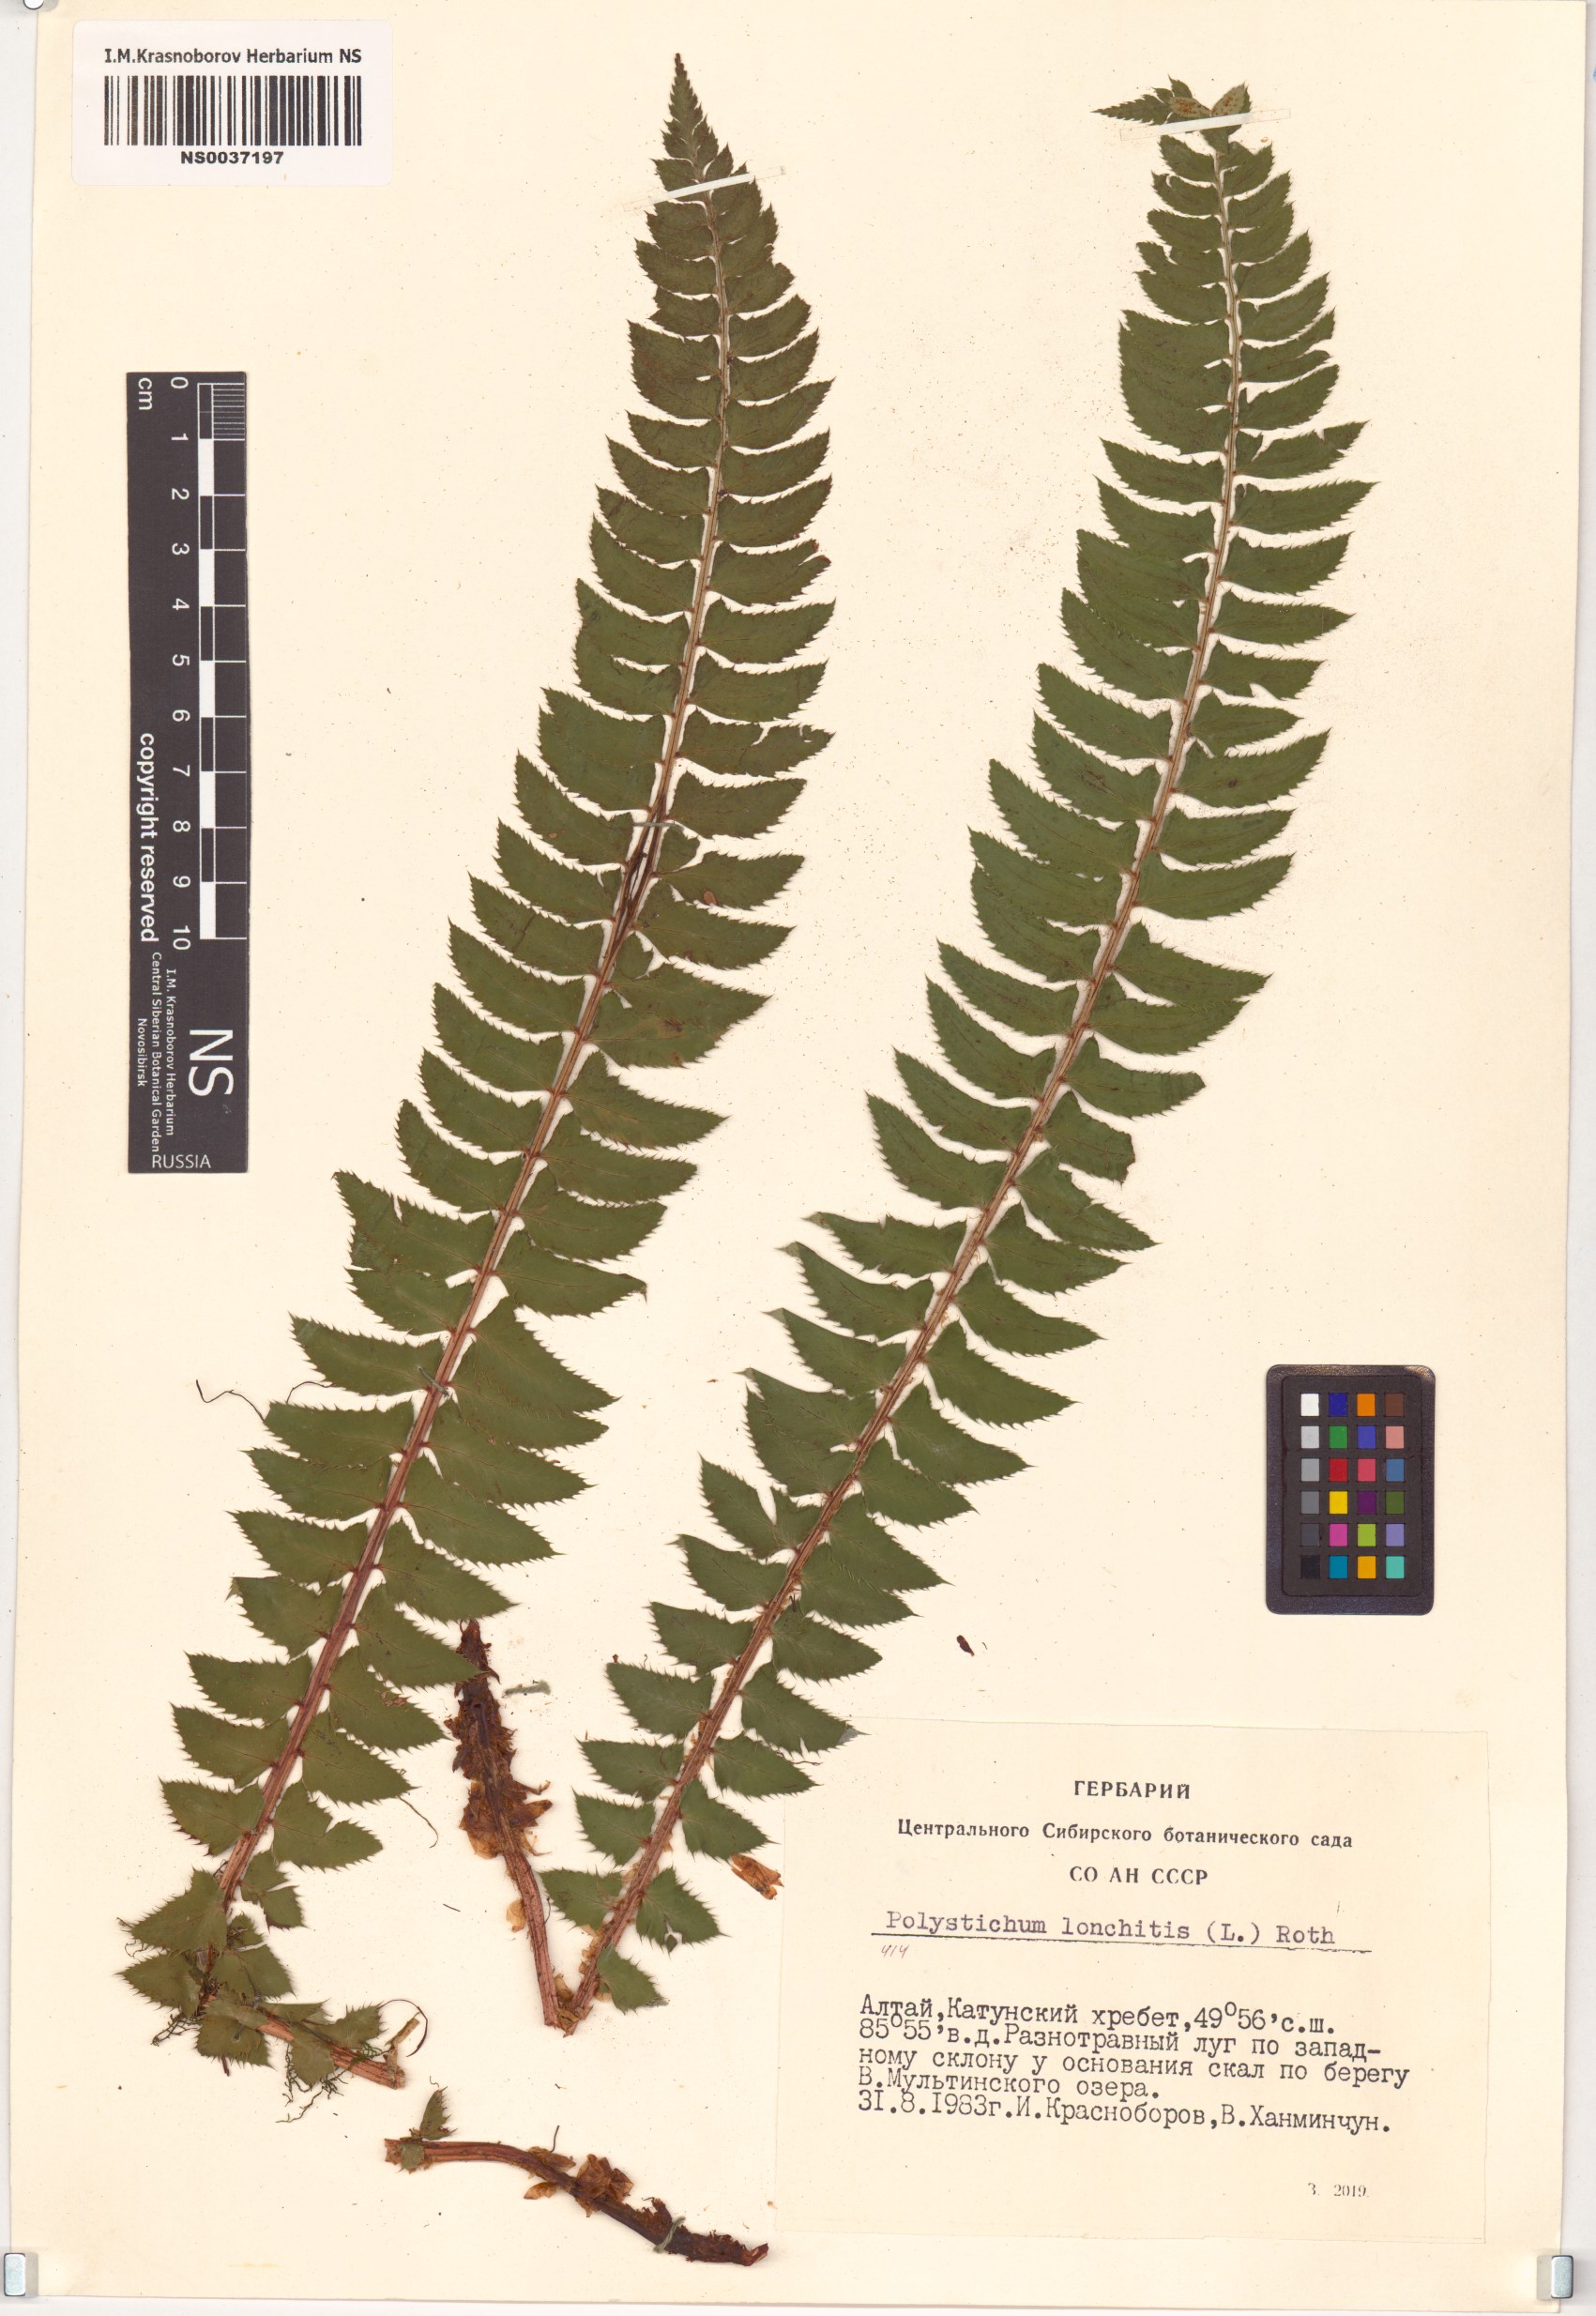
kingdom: Plantae
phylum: Tracheophyta
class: Polypodiopsida
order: Polypodiales
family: Dryopteridaceae
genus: Polystichum
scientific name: Polystichum lonchitis
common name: Holly fern
